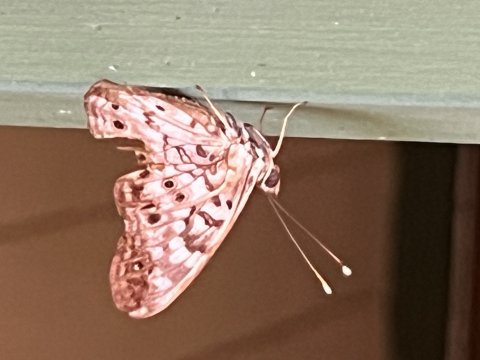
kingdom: Animalia
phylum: Arthropoda
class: Insecta
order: Lepidoptera
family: Nymphalidae
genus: Asterocampa
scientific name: Asterocampa celtis
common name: Hackberry Emperor
